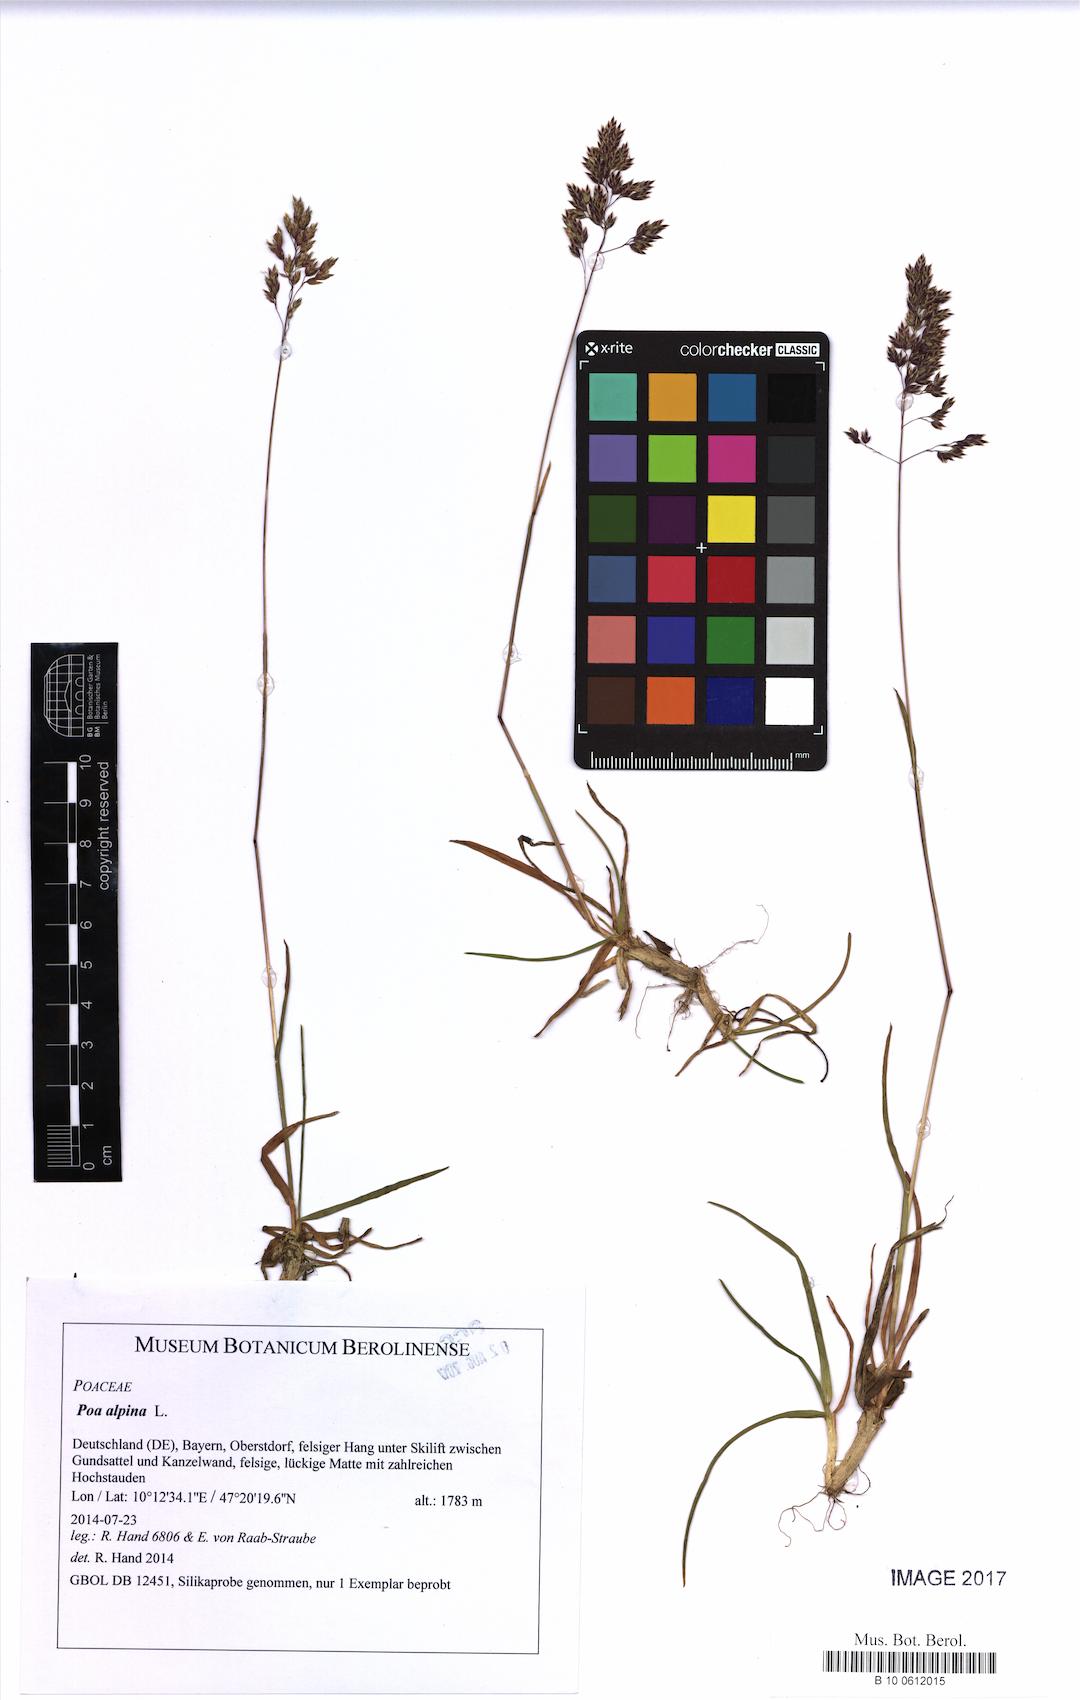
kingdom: Plantae
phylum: Tracheophyta
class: Liliopsida
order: Poales
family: Poaceae
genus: Poa
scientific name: Poa alpina
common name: Alpine bluegrass
